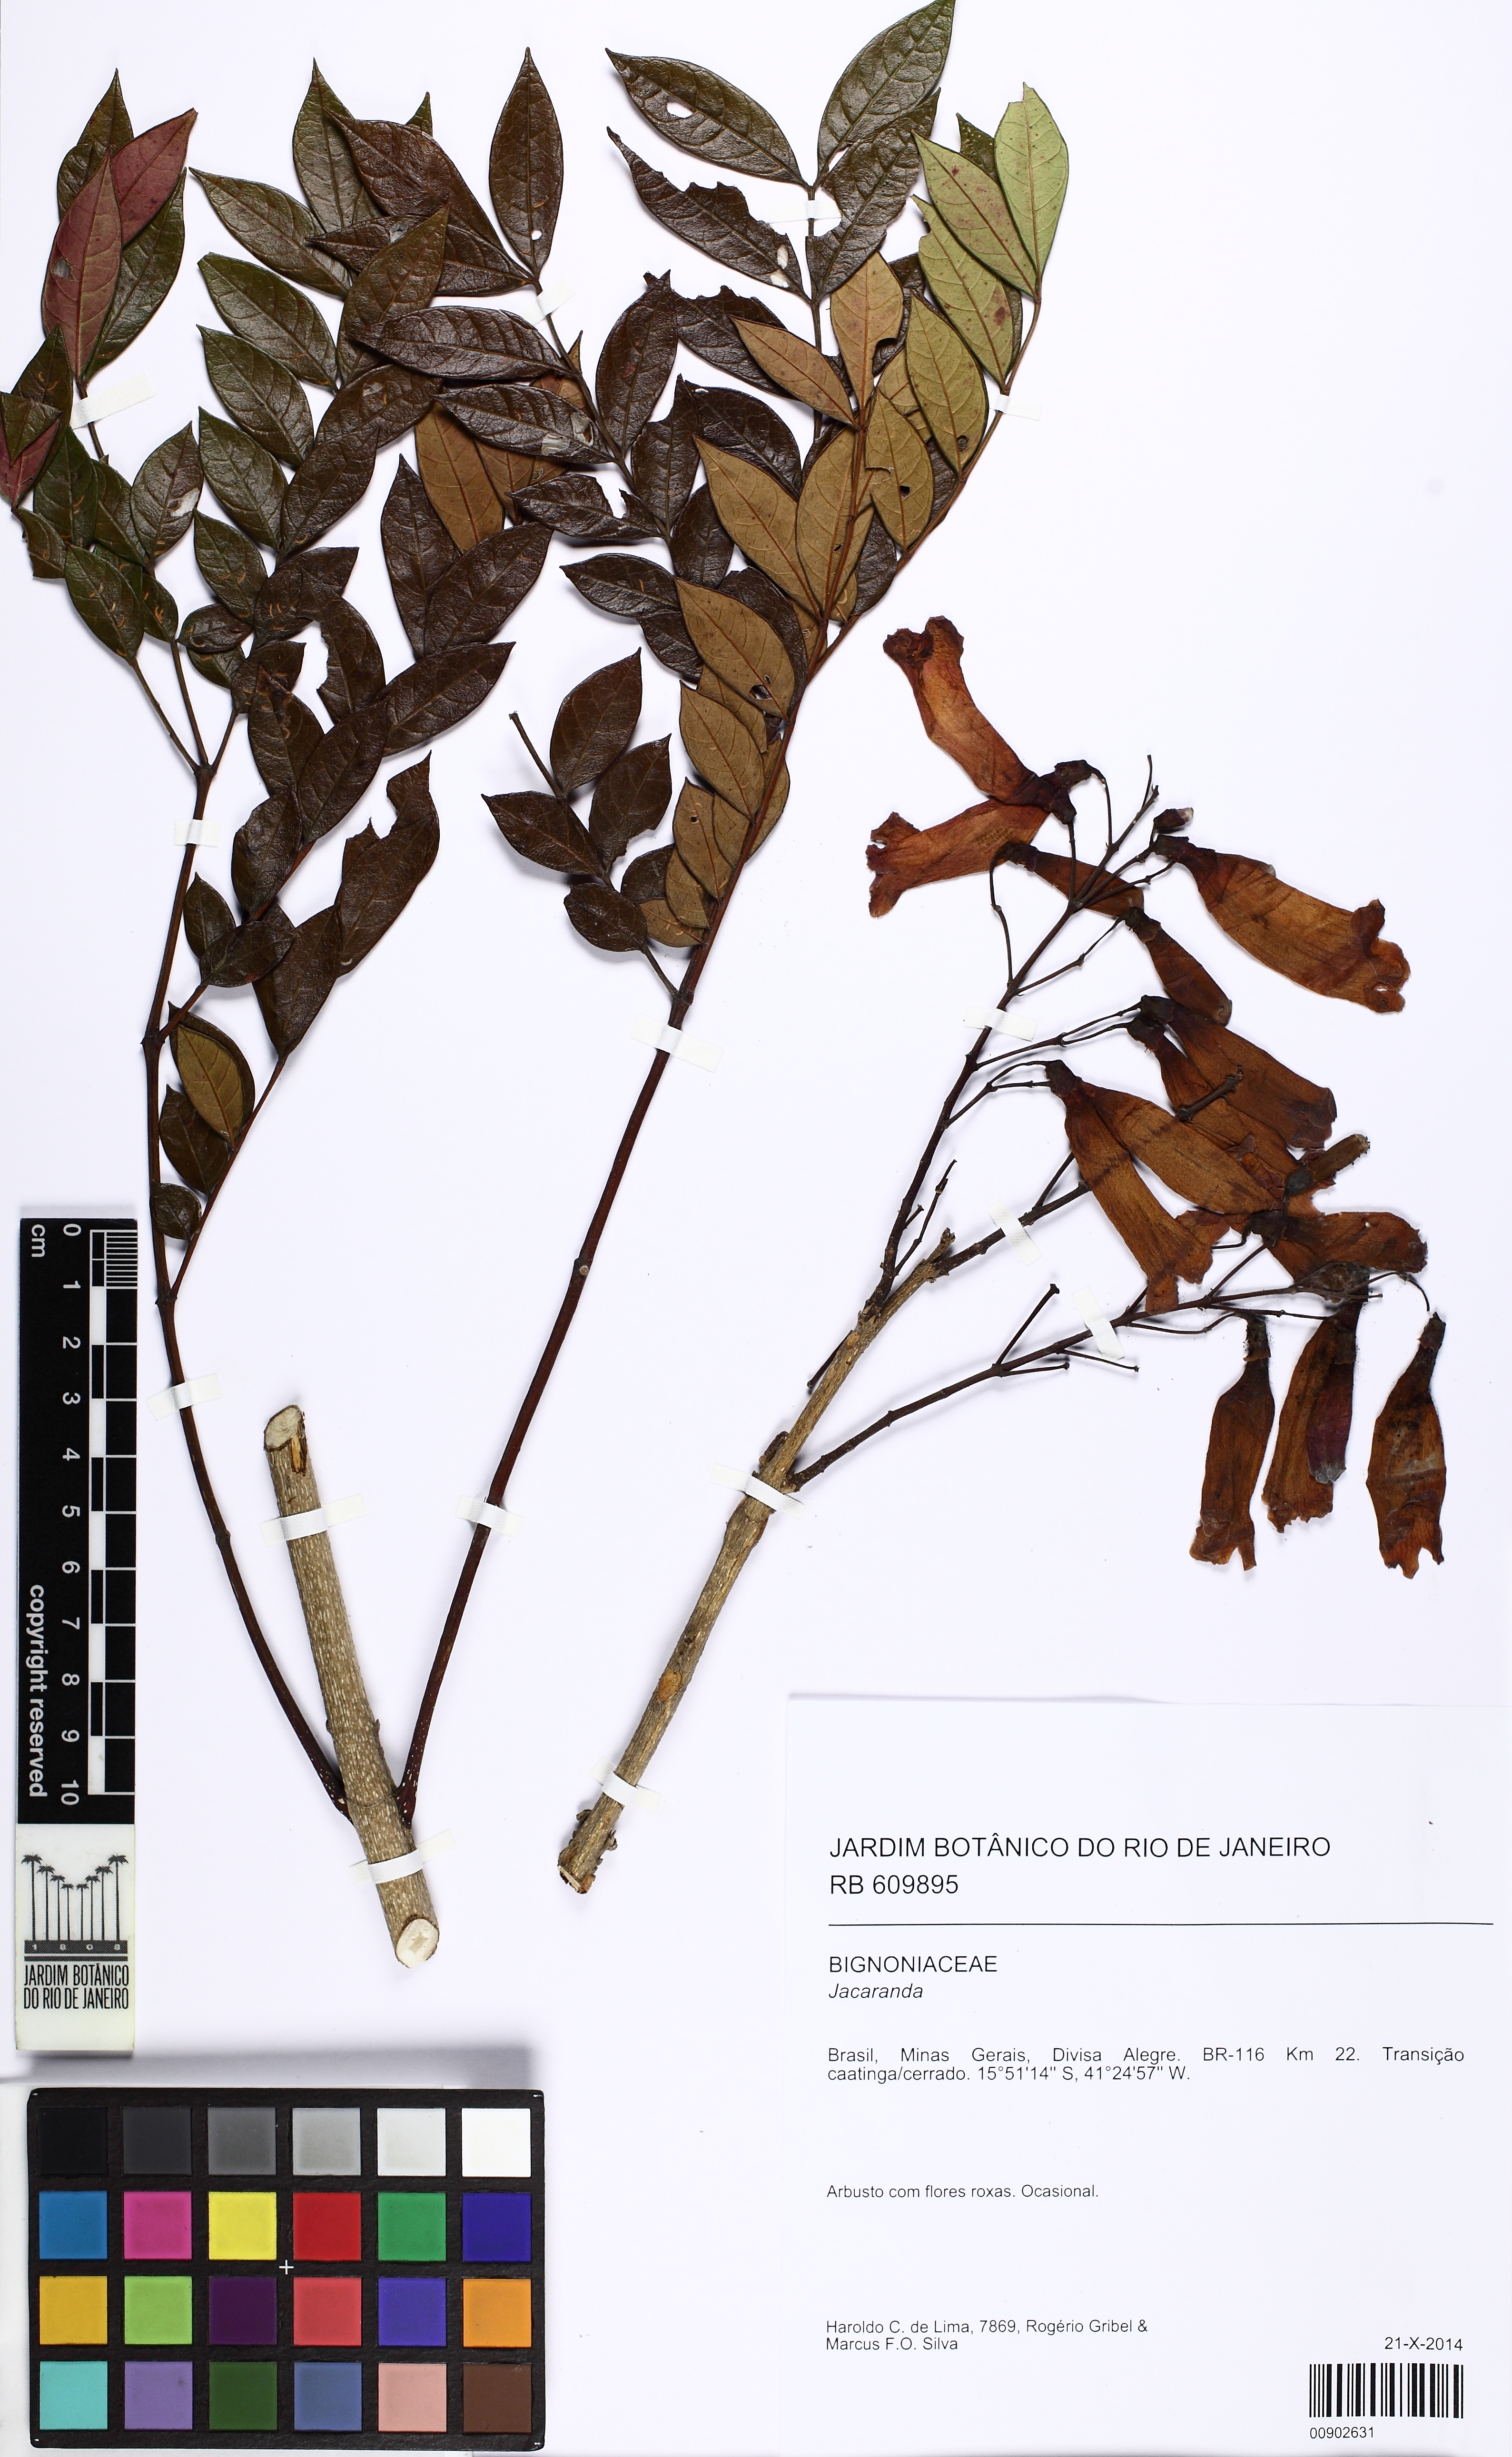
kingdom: Plantae
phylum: Tracheophyta
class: Magnoliopsida
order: Lamiales
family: Bignoniaceae
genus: Jacaranda
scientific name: Jacaranda
